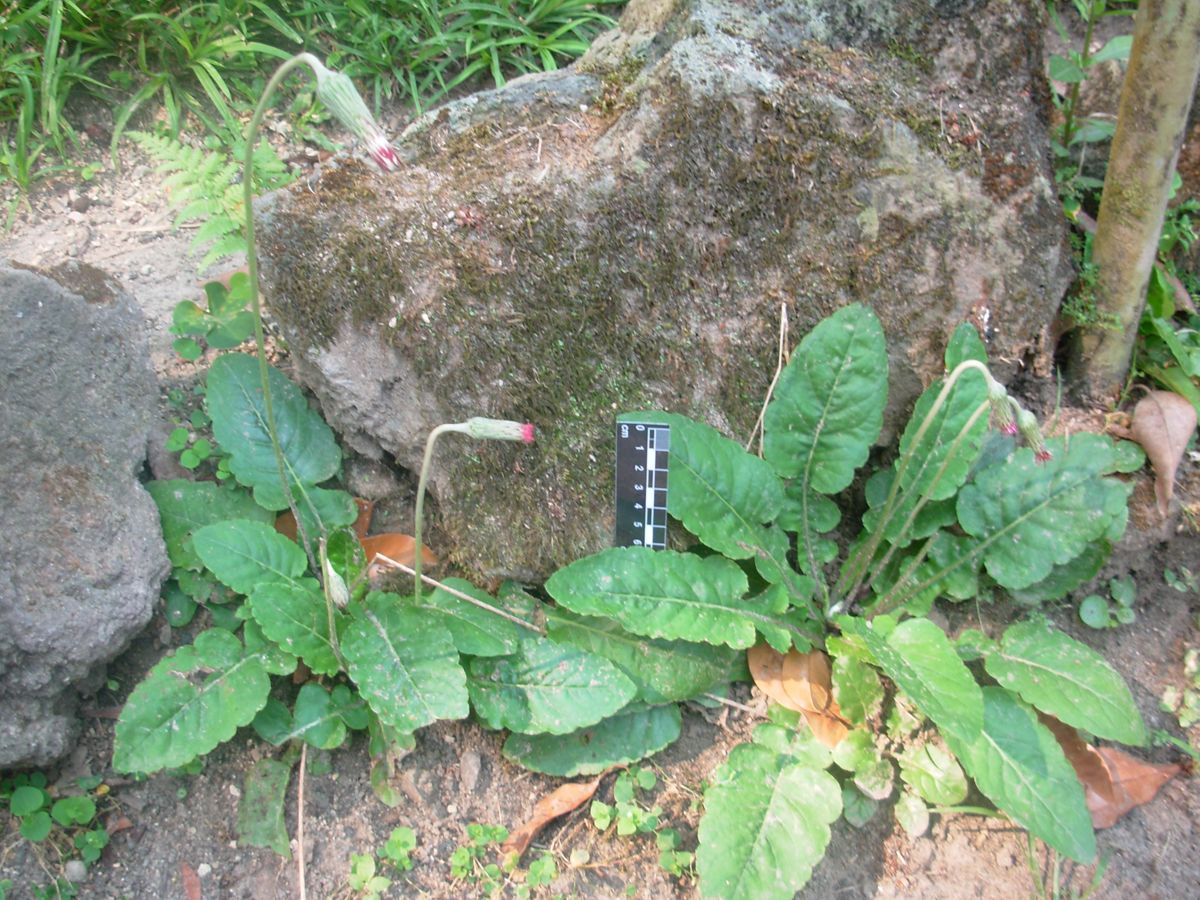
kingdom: Plantae
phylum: Tracheophyta
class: Magnoliopsida
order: Asterales
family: Asteraceae
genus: Chaptalia
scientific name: Chaptalia nutans
